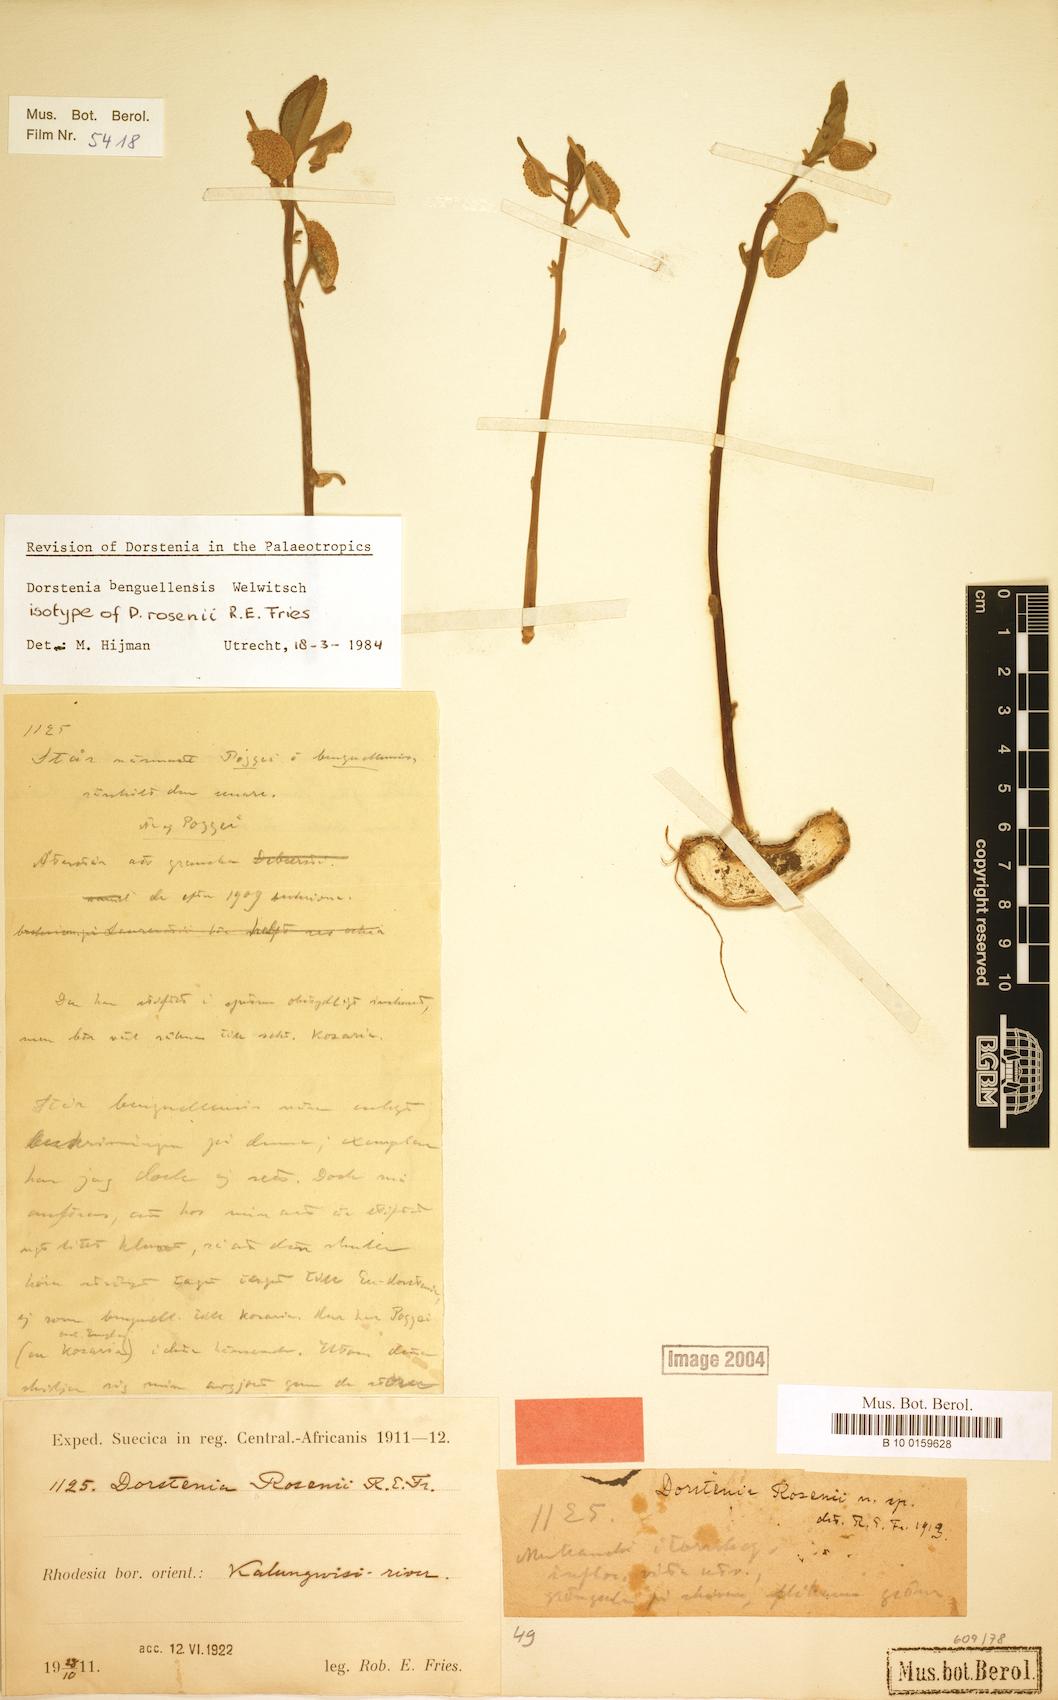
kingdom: Plantae
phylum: Tracheophyta
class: Magnoliopsida
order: Rosales
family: Moraceae
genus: Dorstenia
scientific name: Dorstenia benguellensis
